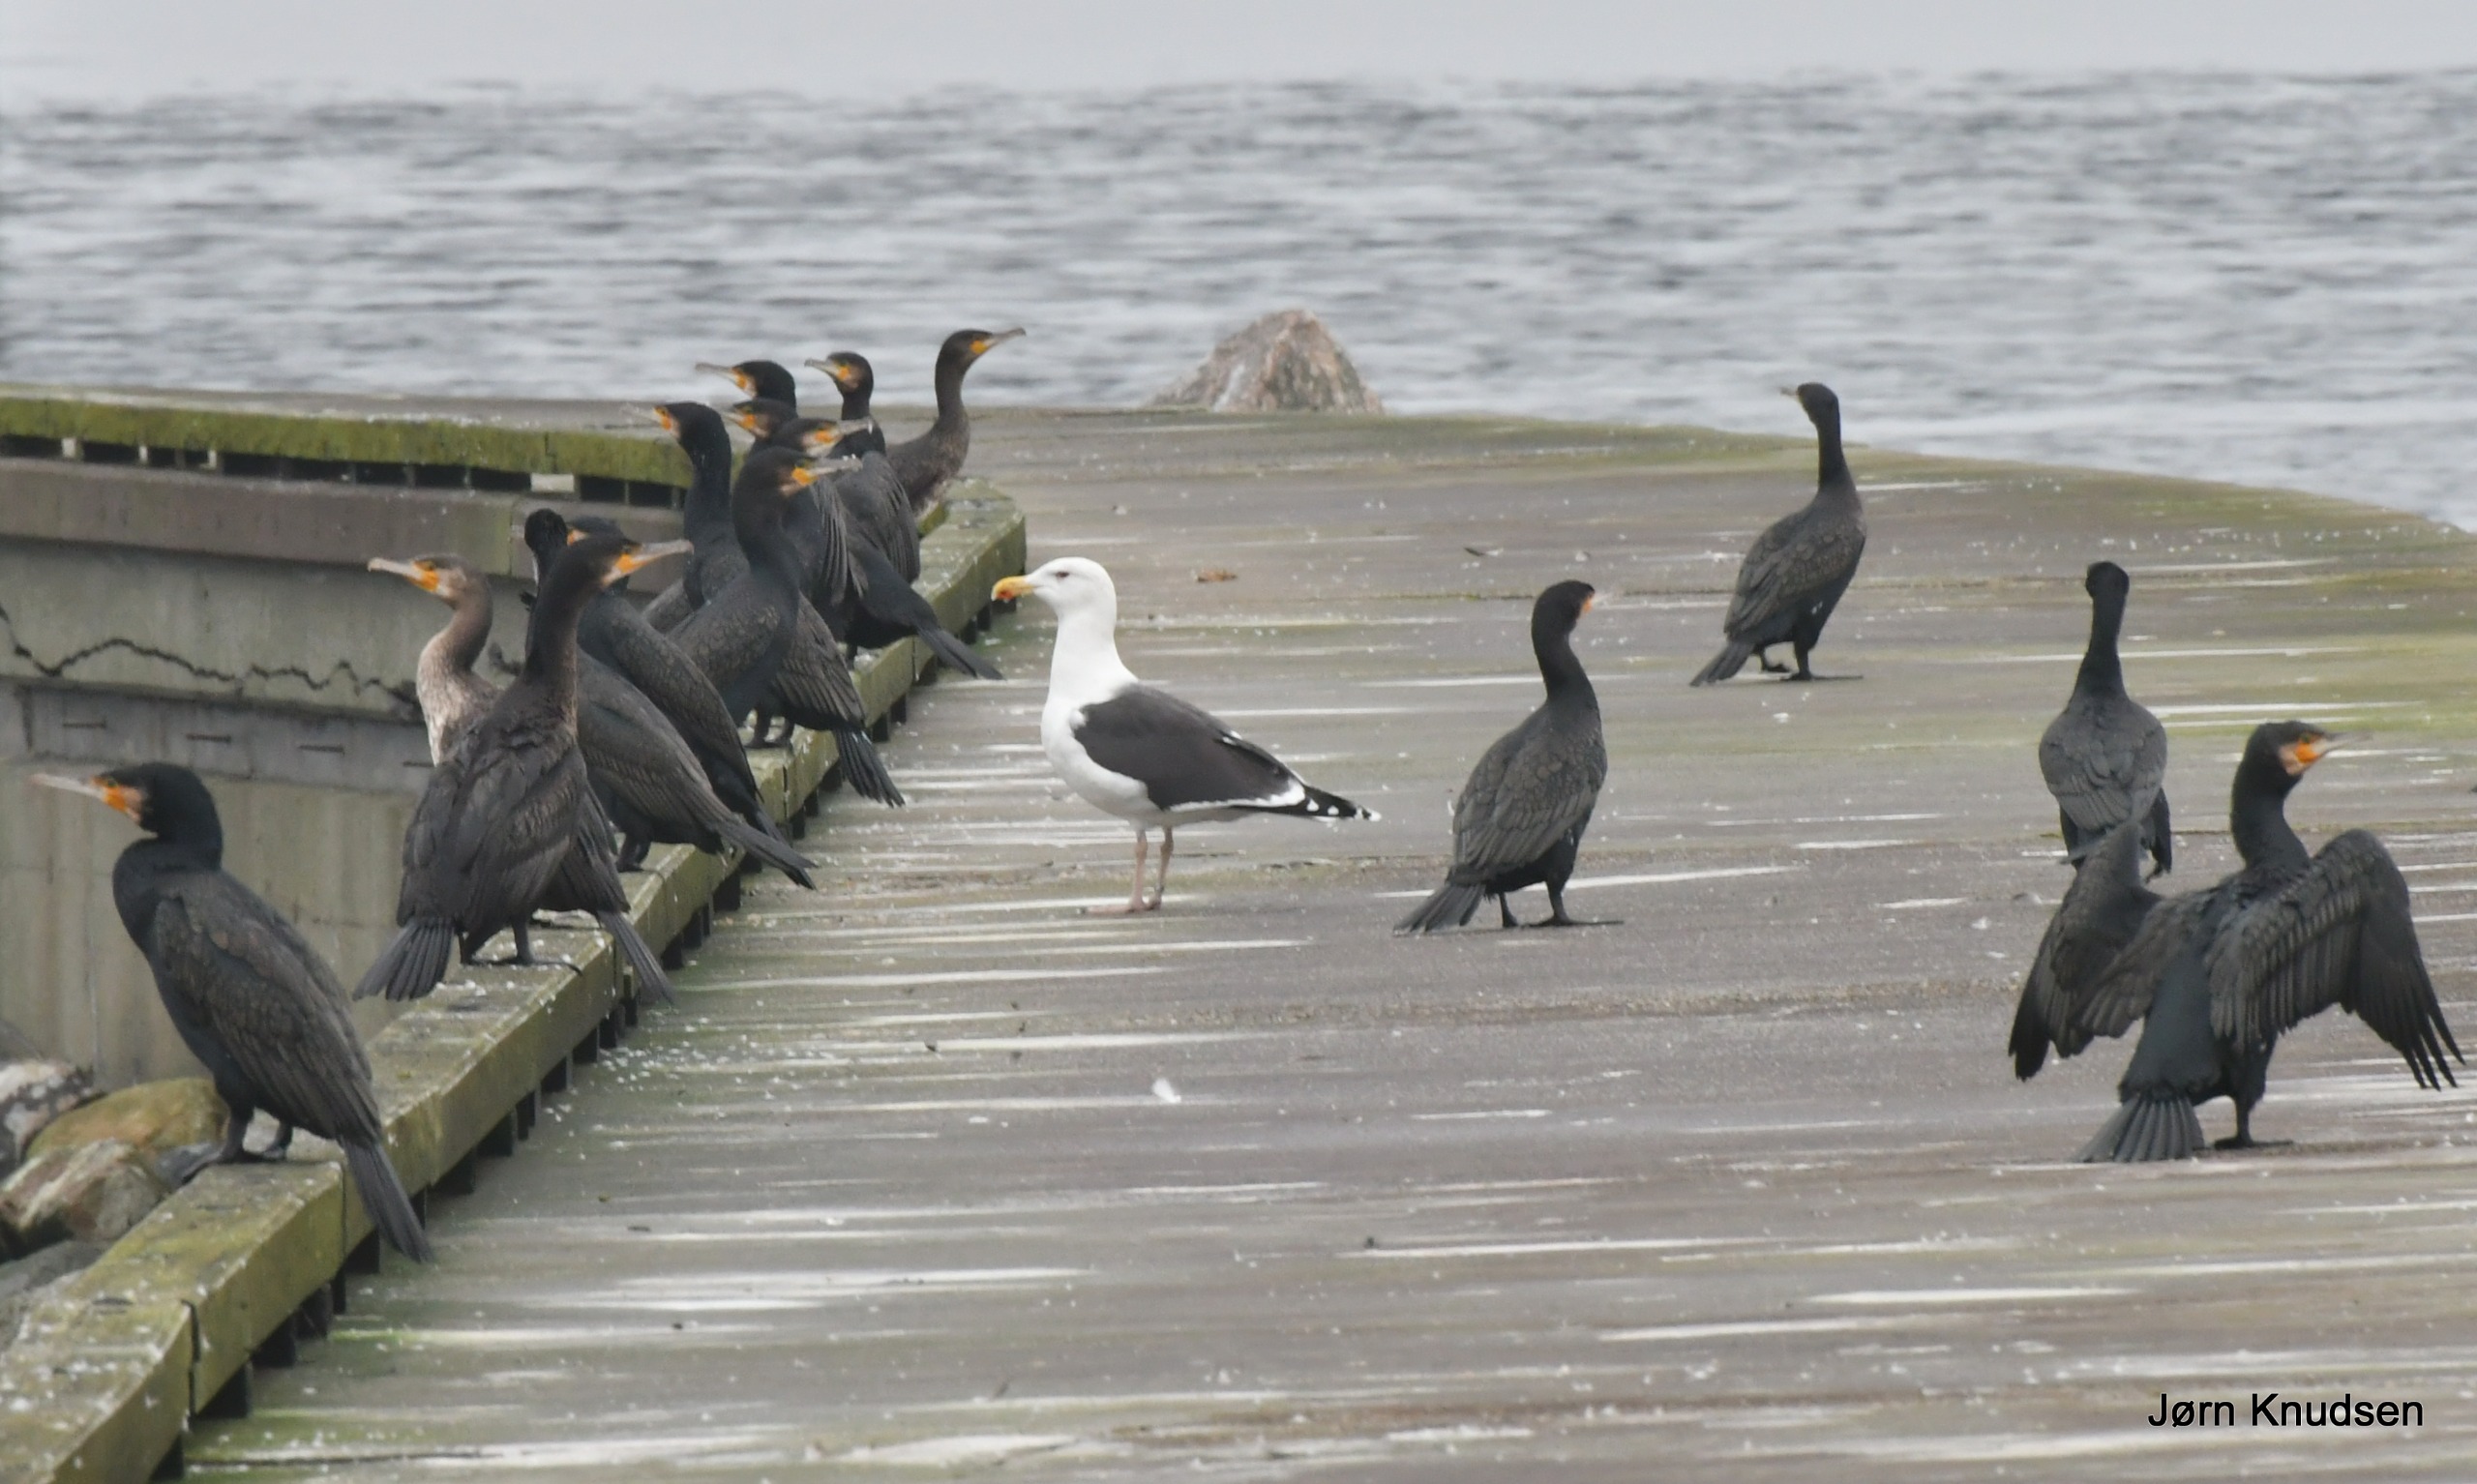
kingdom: Animalia
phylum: Chordata
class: Aves
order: Suliformes
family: Phalacrocoracidae
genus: Phalacrocorax
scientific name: Phalacrocorax carbo
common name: Skarv
